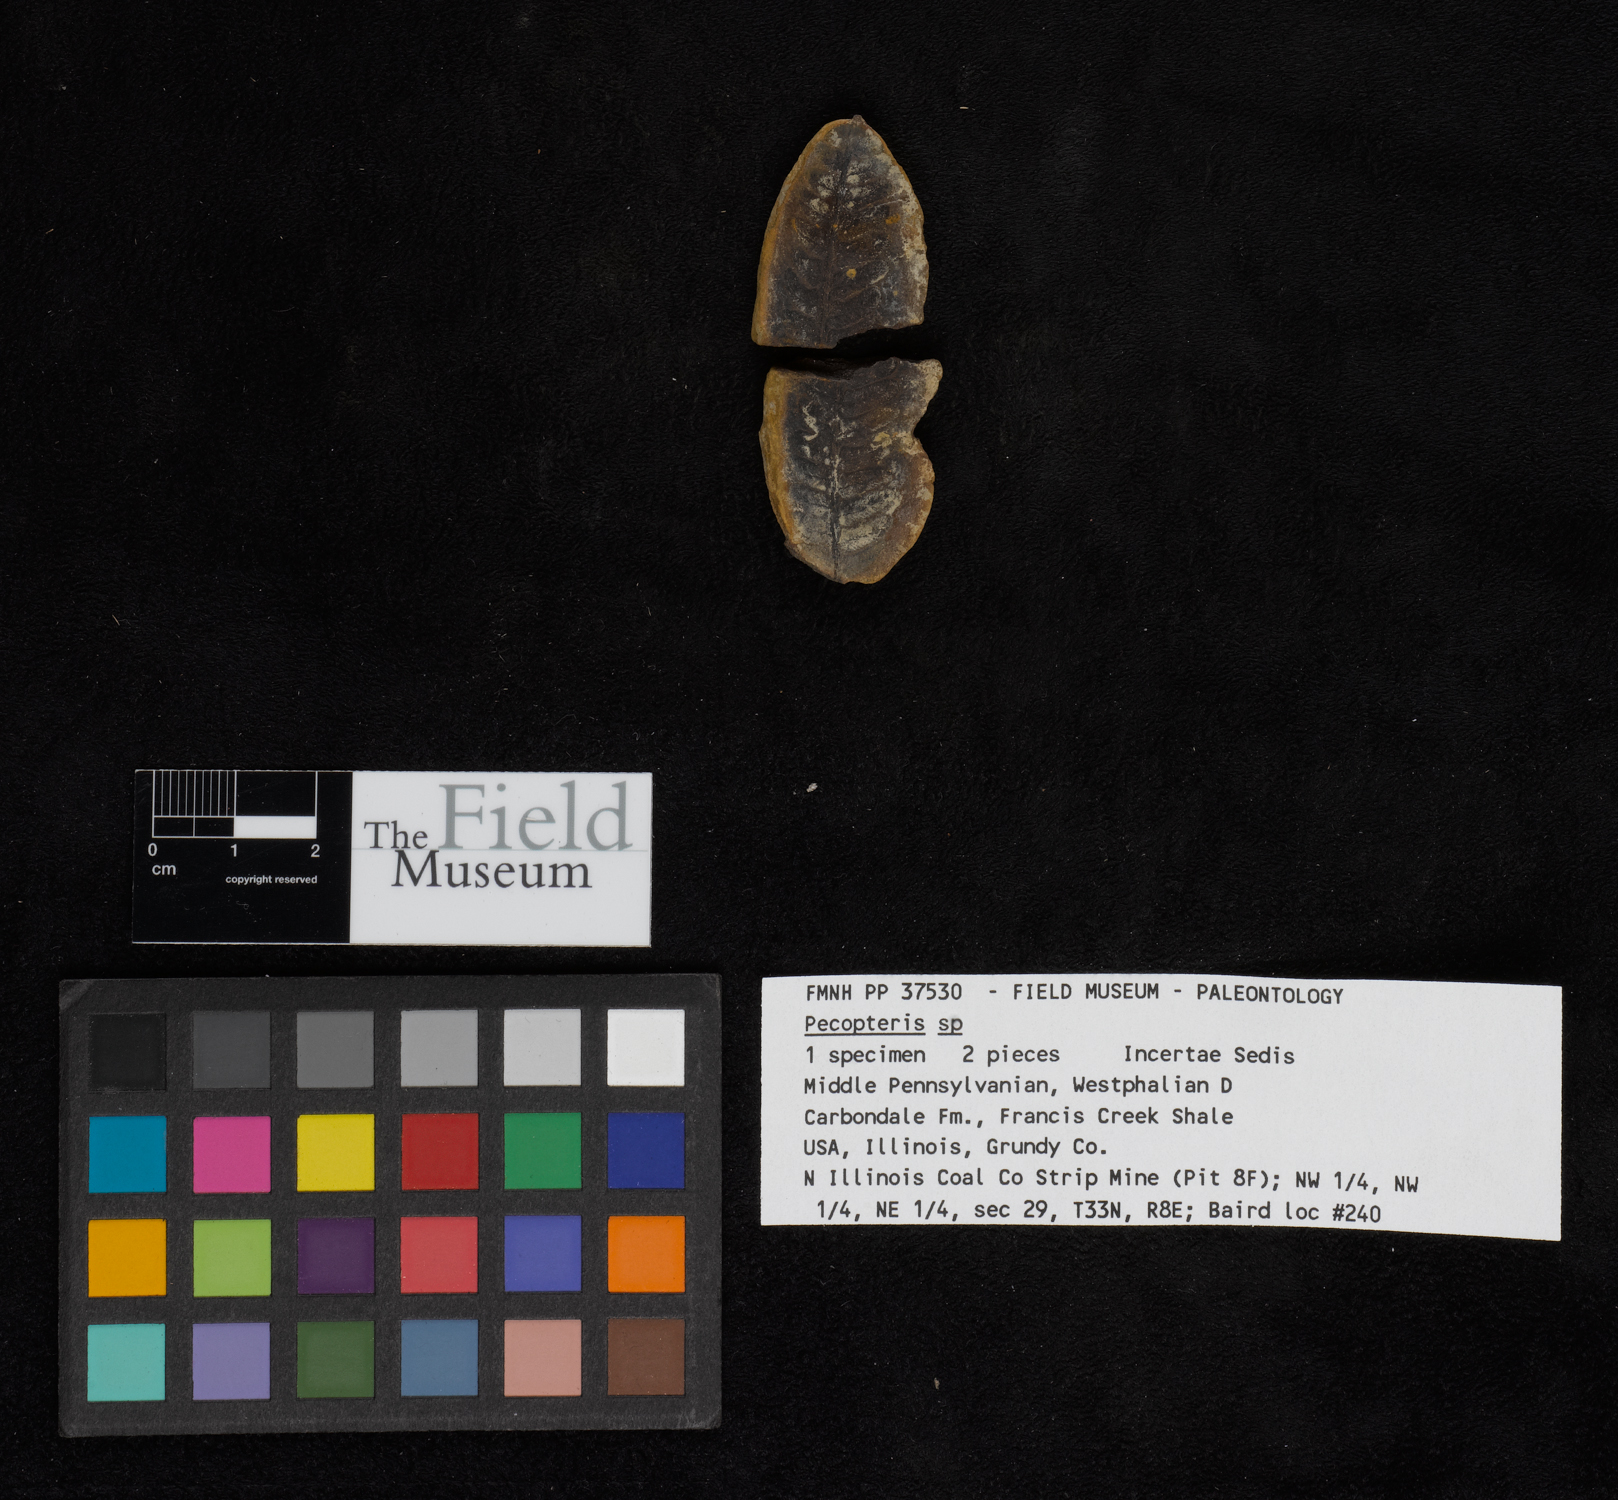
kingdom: Plantae
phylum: Tracheophyta
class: Polypodiopsida
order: Marattiales
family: Asterothecaceae
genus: Pecopteris
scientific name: Pecopteris
